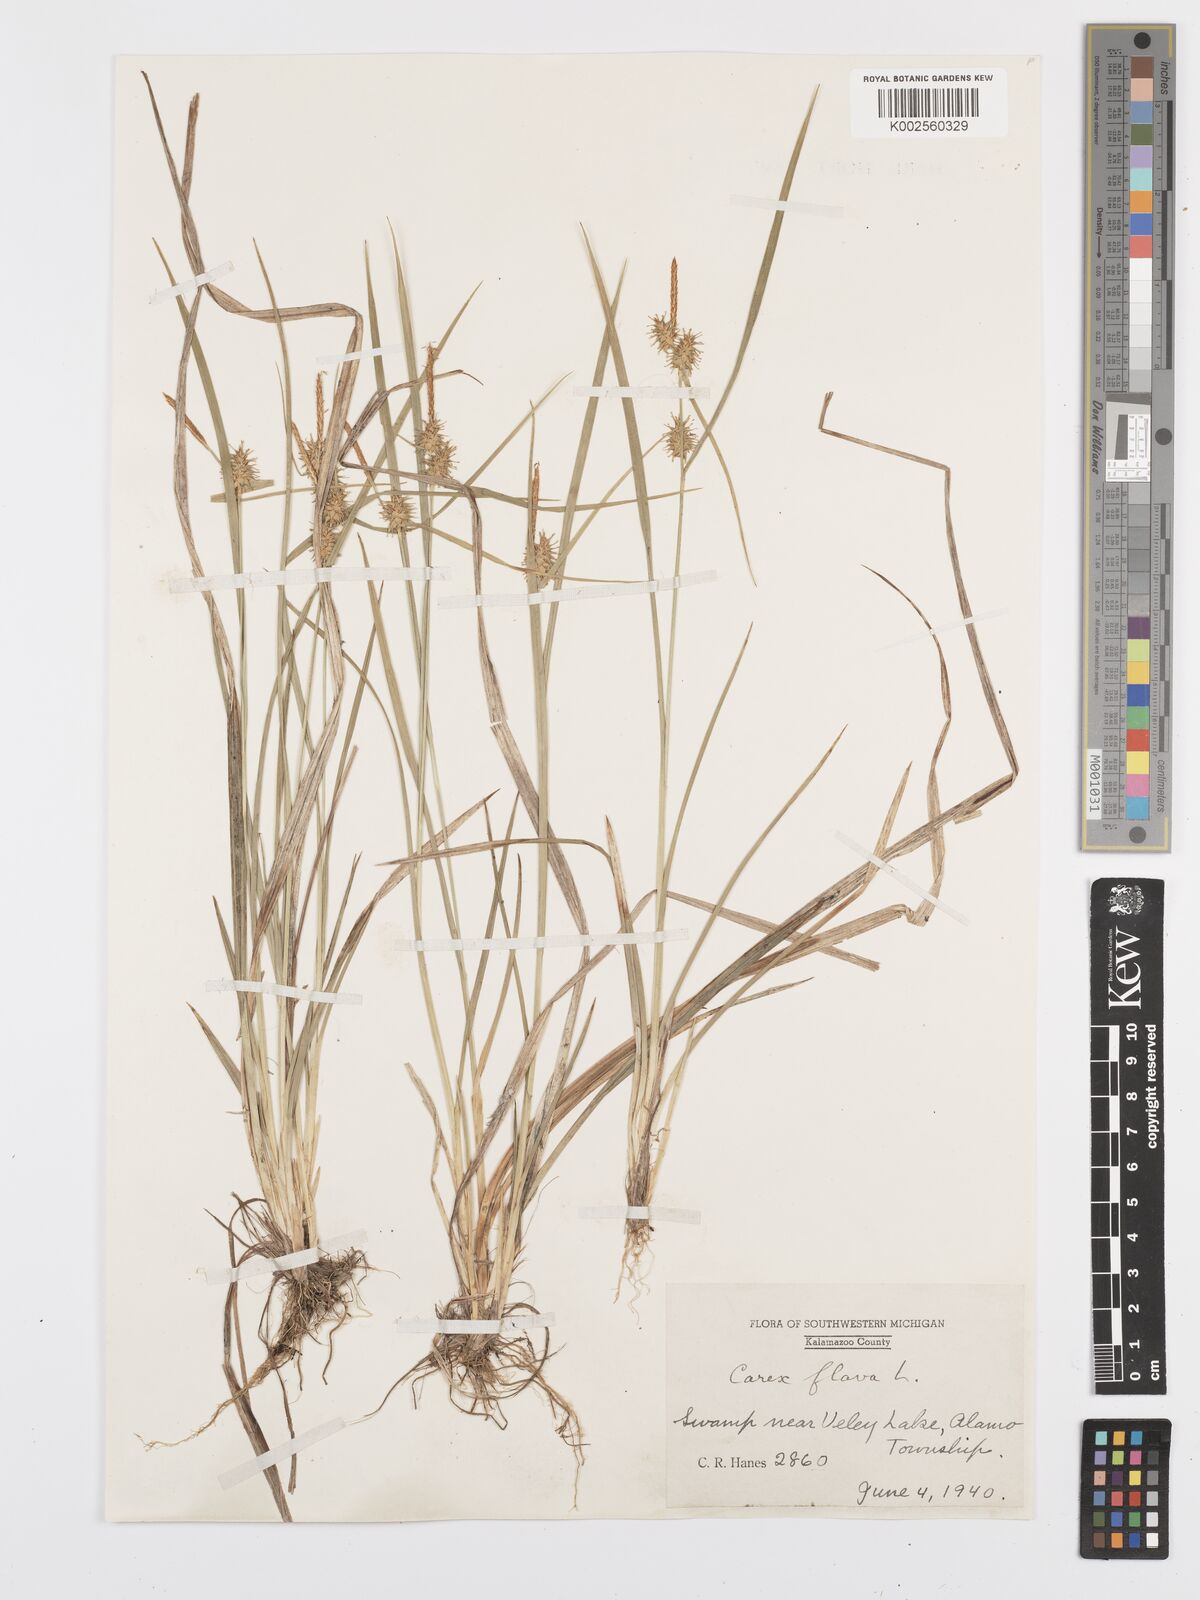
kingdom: Plantae
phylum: Tracheophyta
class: Liliopsida
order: Poales
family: Cyperaceae
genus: Carex
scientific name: Carex flava
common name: Large yellow-sedge
